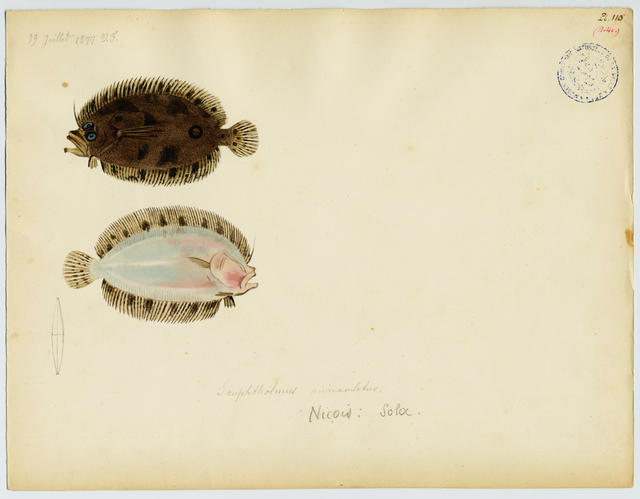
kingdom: Animalia
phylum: Chordata
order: Pleuronectiformes
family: Scophthalmidae
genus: Zeugopterus
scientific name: Zeugopterus regius
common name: Eckström's topknot
